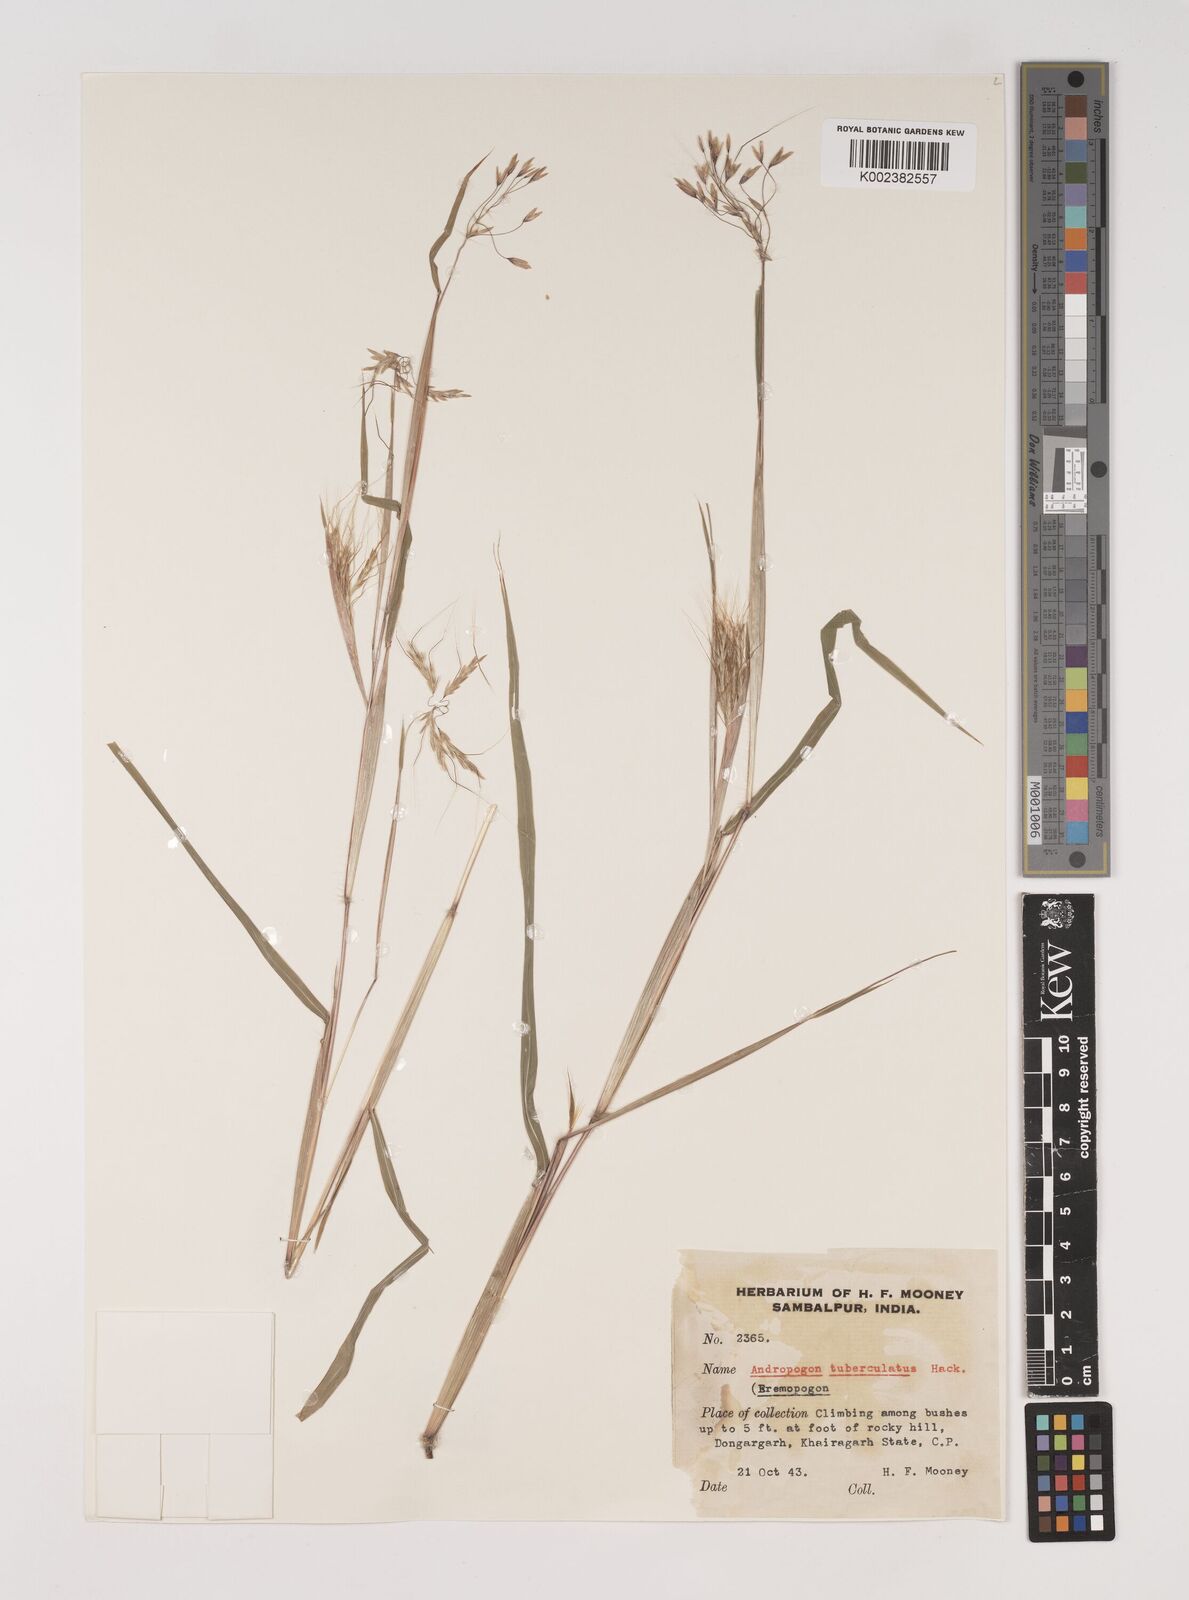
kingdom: Plantae
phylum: Tracheophyta
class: Liliopsida
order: Poales
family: Poaceae
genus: Euclasta
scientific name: Euclasta condylotricha
